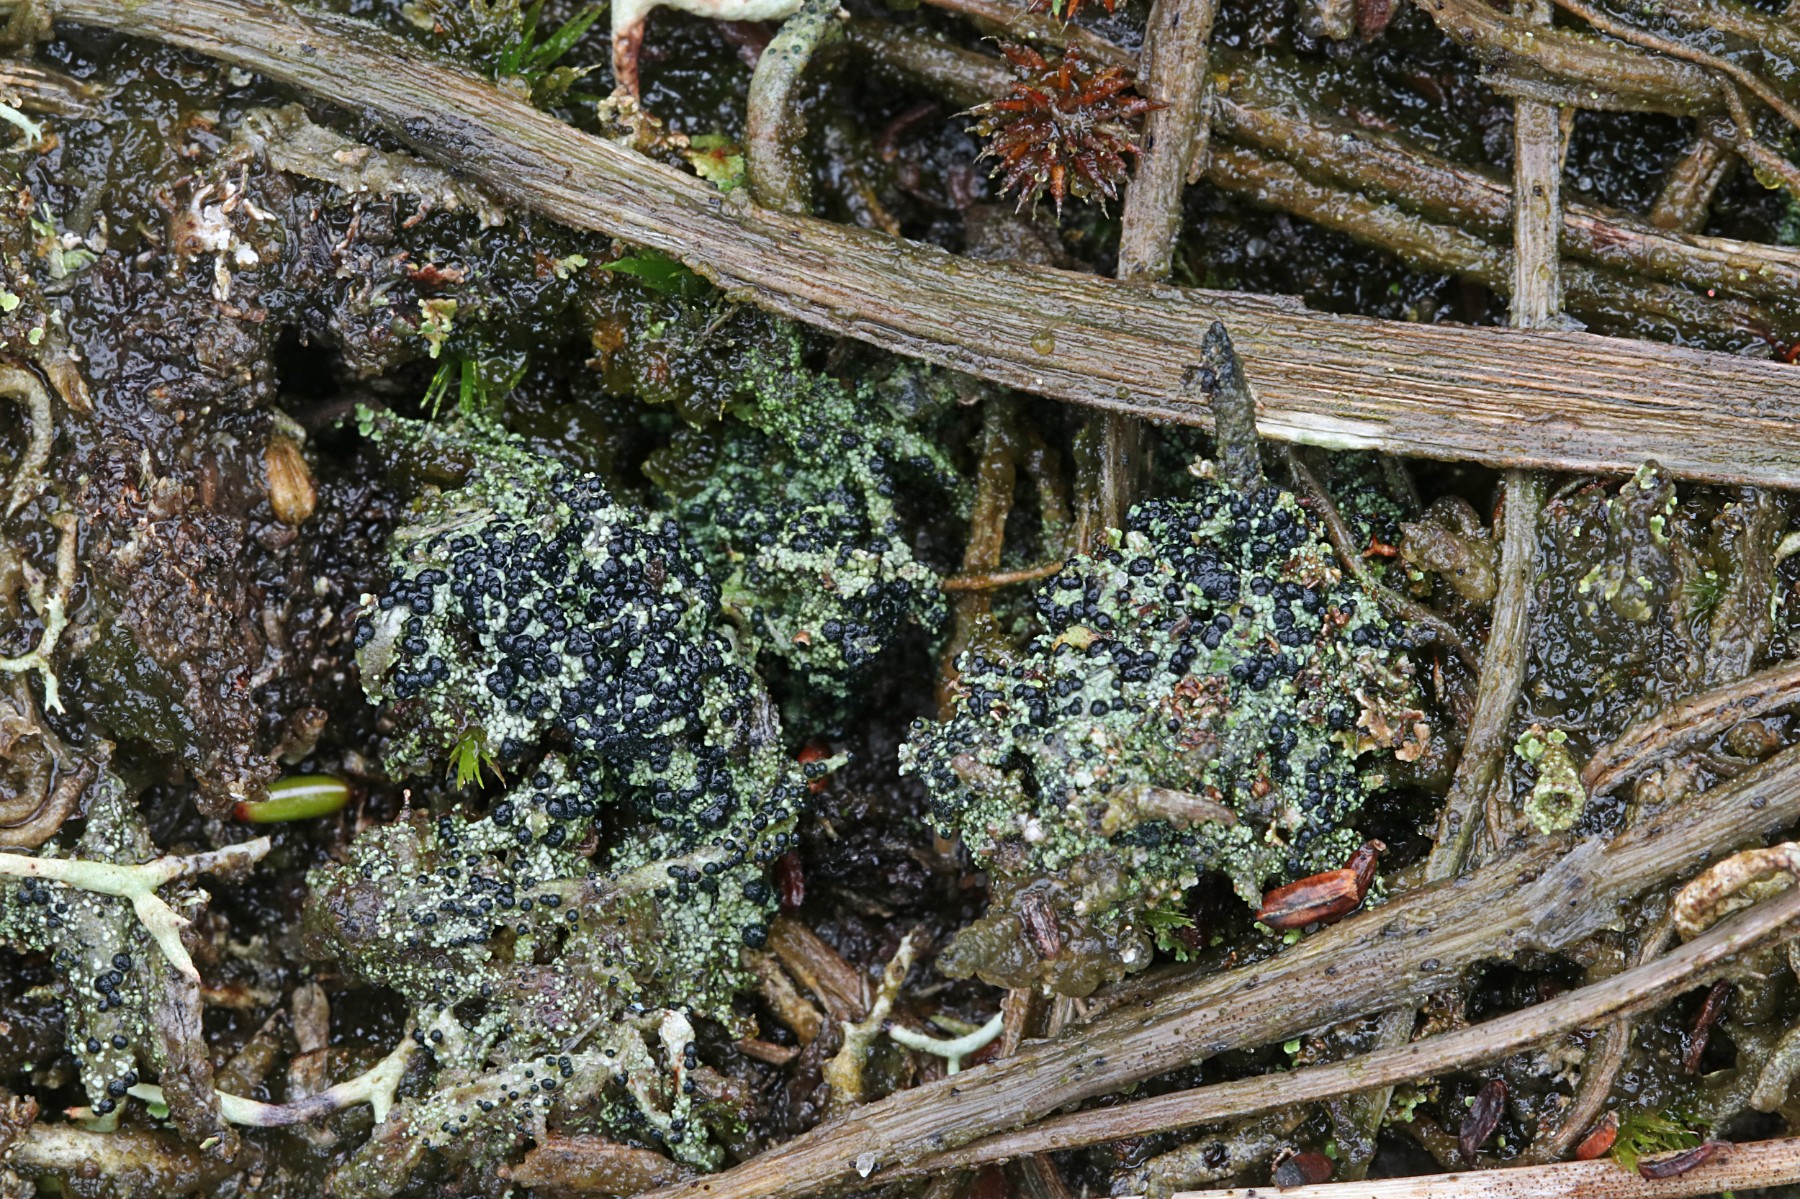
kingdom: Fungi
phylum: Ascomycota
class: Lecanoromycetes
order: Lecanorales
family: Byssolomataceae
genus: Micarea
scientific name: Micarea lignaria
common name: tørve-knaplav
